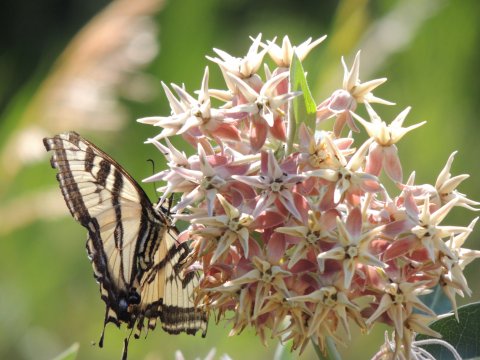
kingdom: Animalia
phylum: Arthropoda
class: Insecta
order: Lepidoptera
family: Papilionidae
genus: Pterourus
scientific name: Pterourus rutulus
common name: Western Tiger Swallowtail
